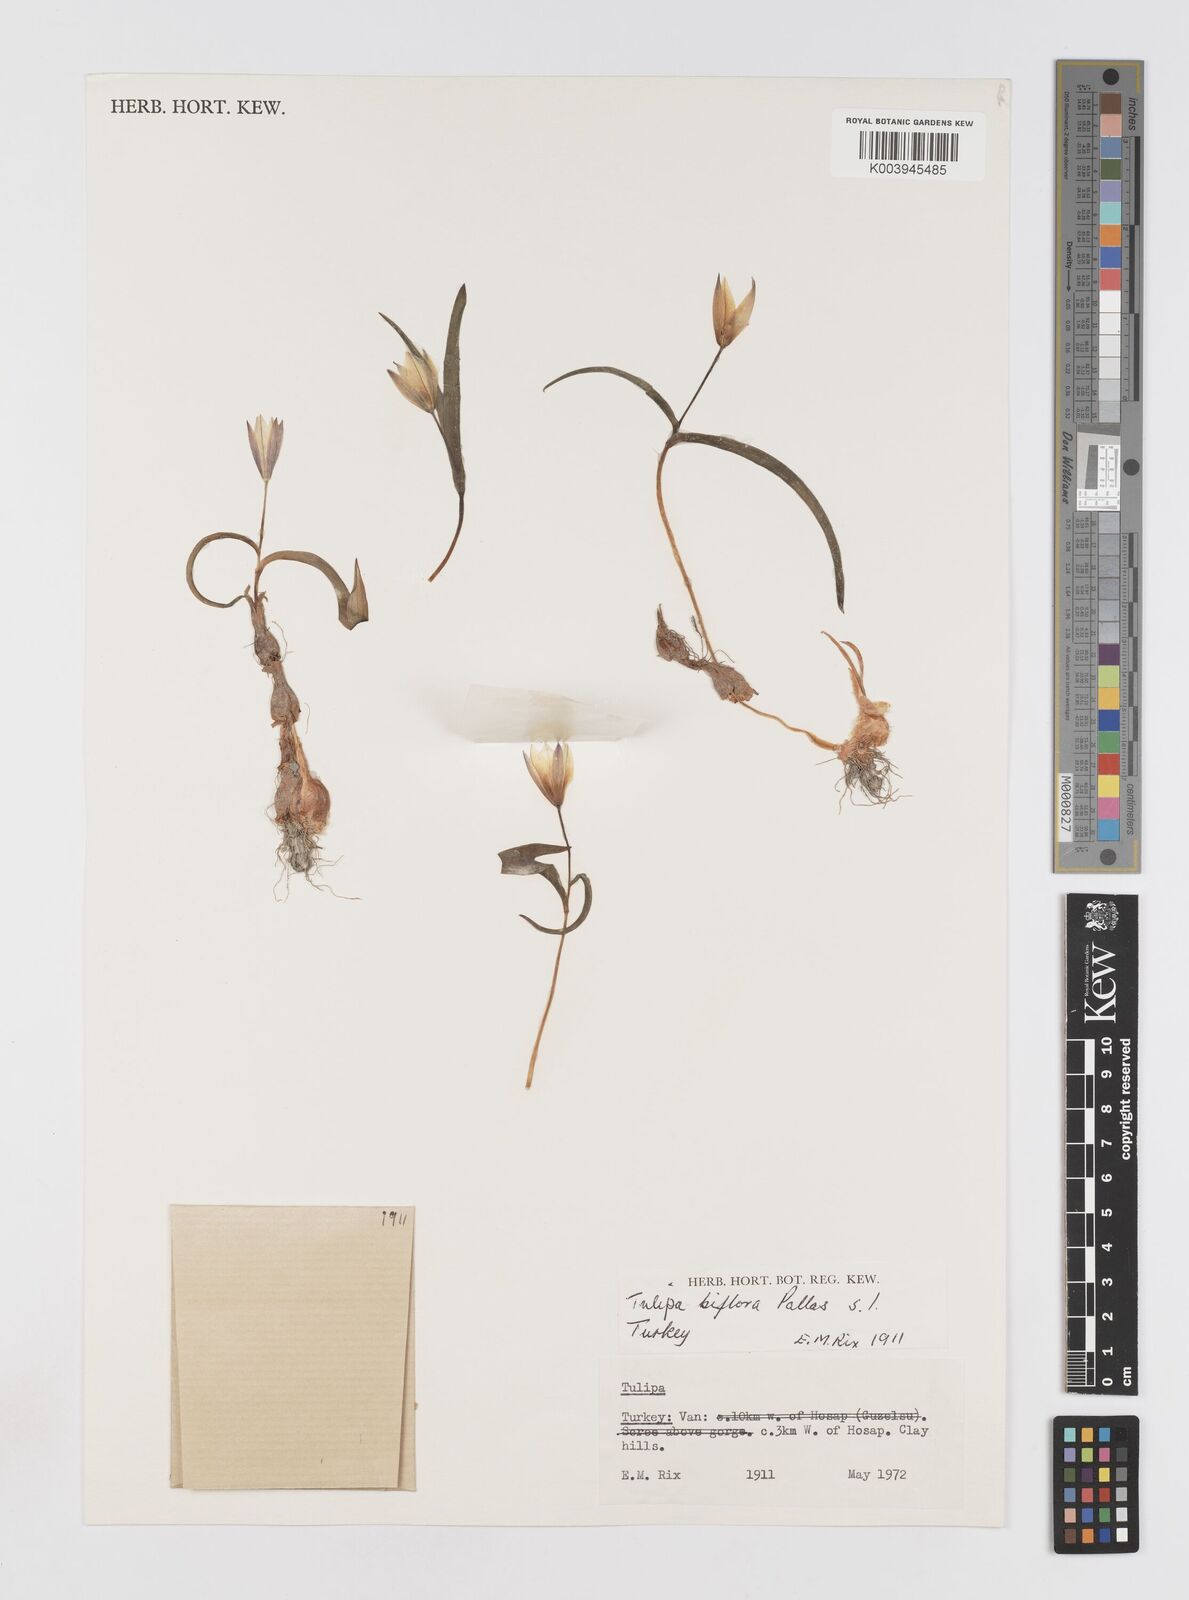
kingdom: Plantae
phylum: Tracheophyta
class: Liliopsida
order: Liliales
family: Liliaceae
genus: Tulipa
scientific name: Tulipa biflora
